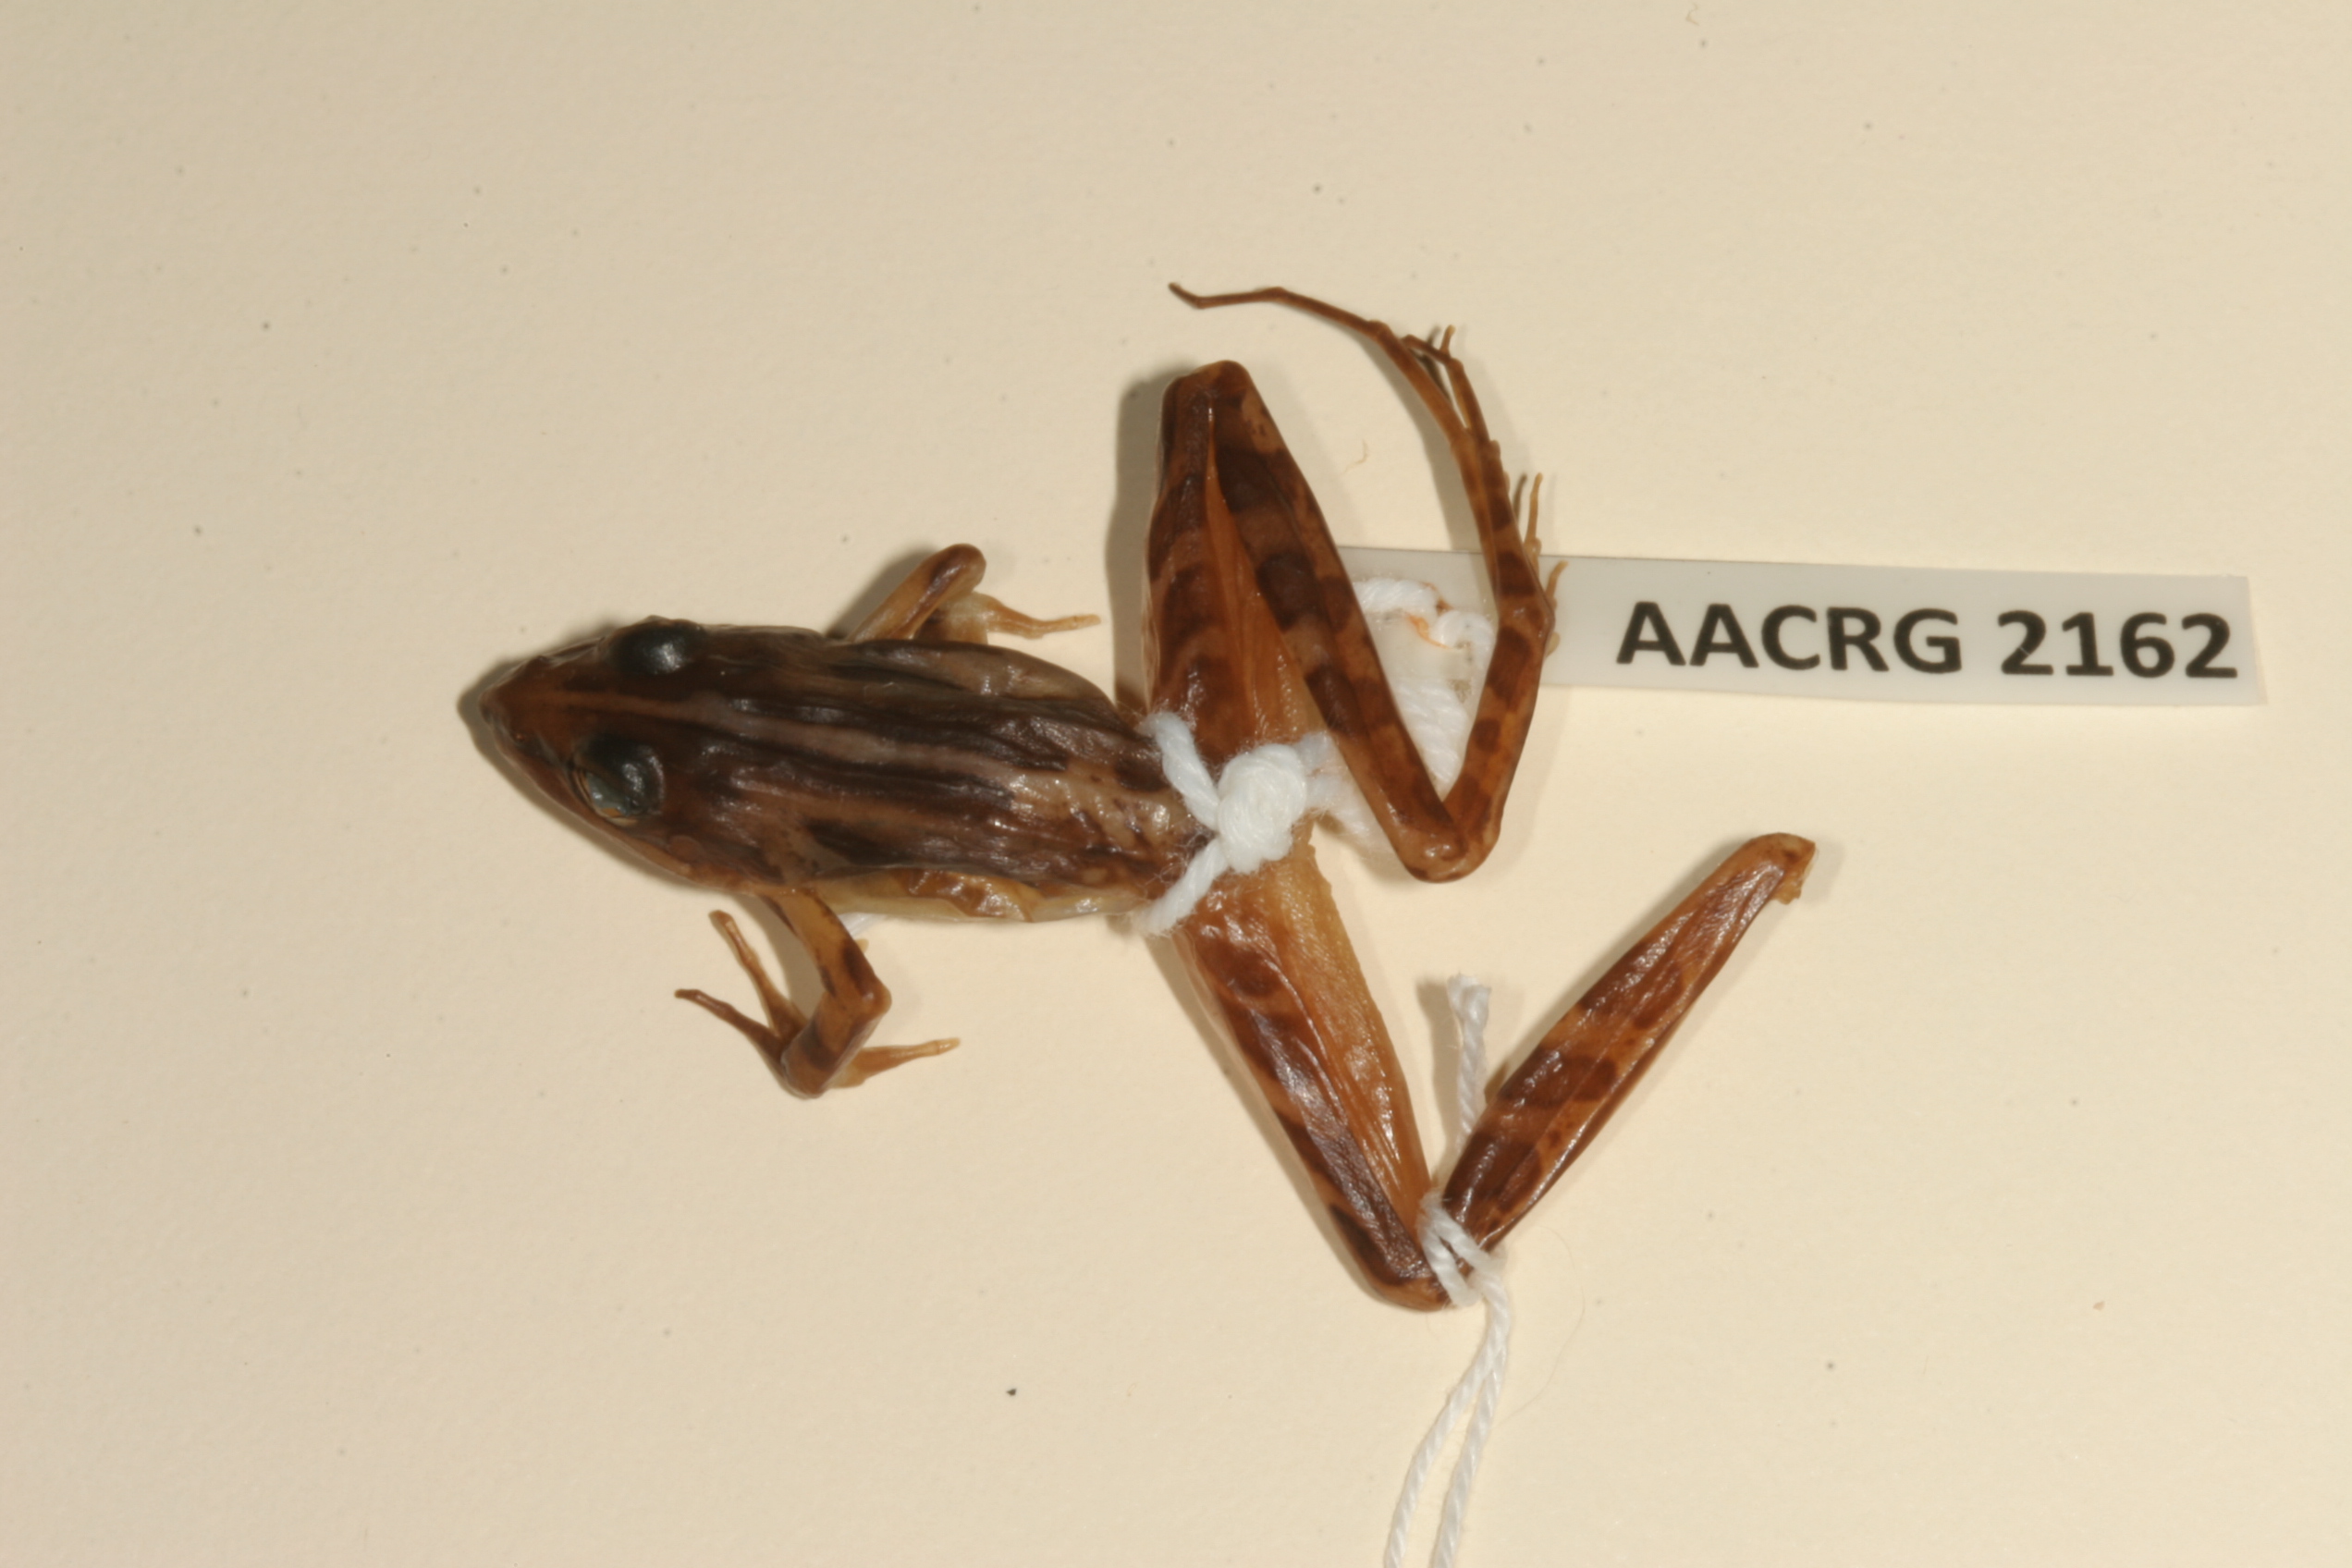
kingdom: Animalia
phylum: Chordata
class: Amphibia
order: Anura
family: Pyxicephalidae
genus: Strongylopus
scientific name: Strongylopus bonaespei
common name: Banded stream frog
